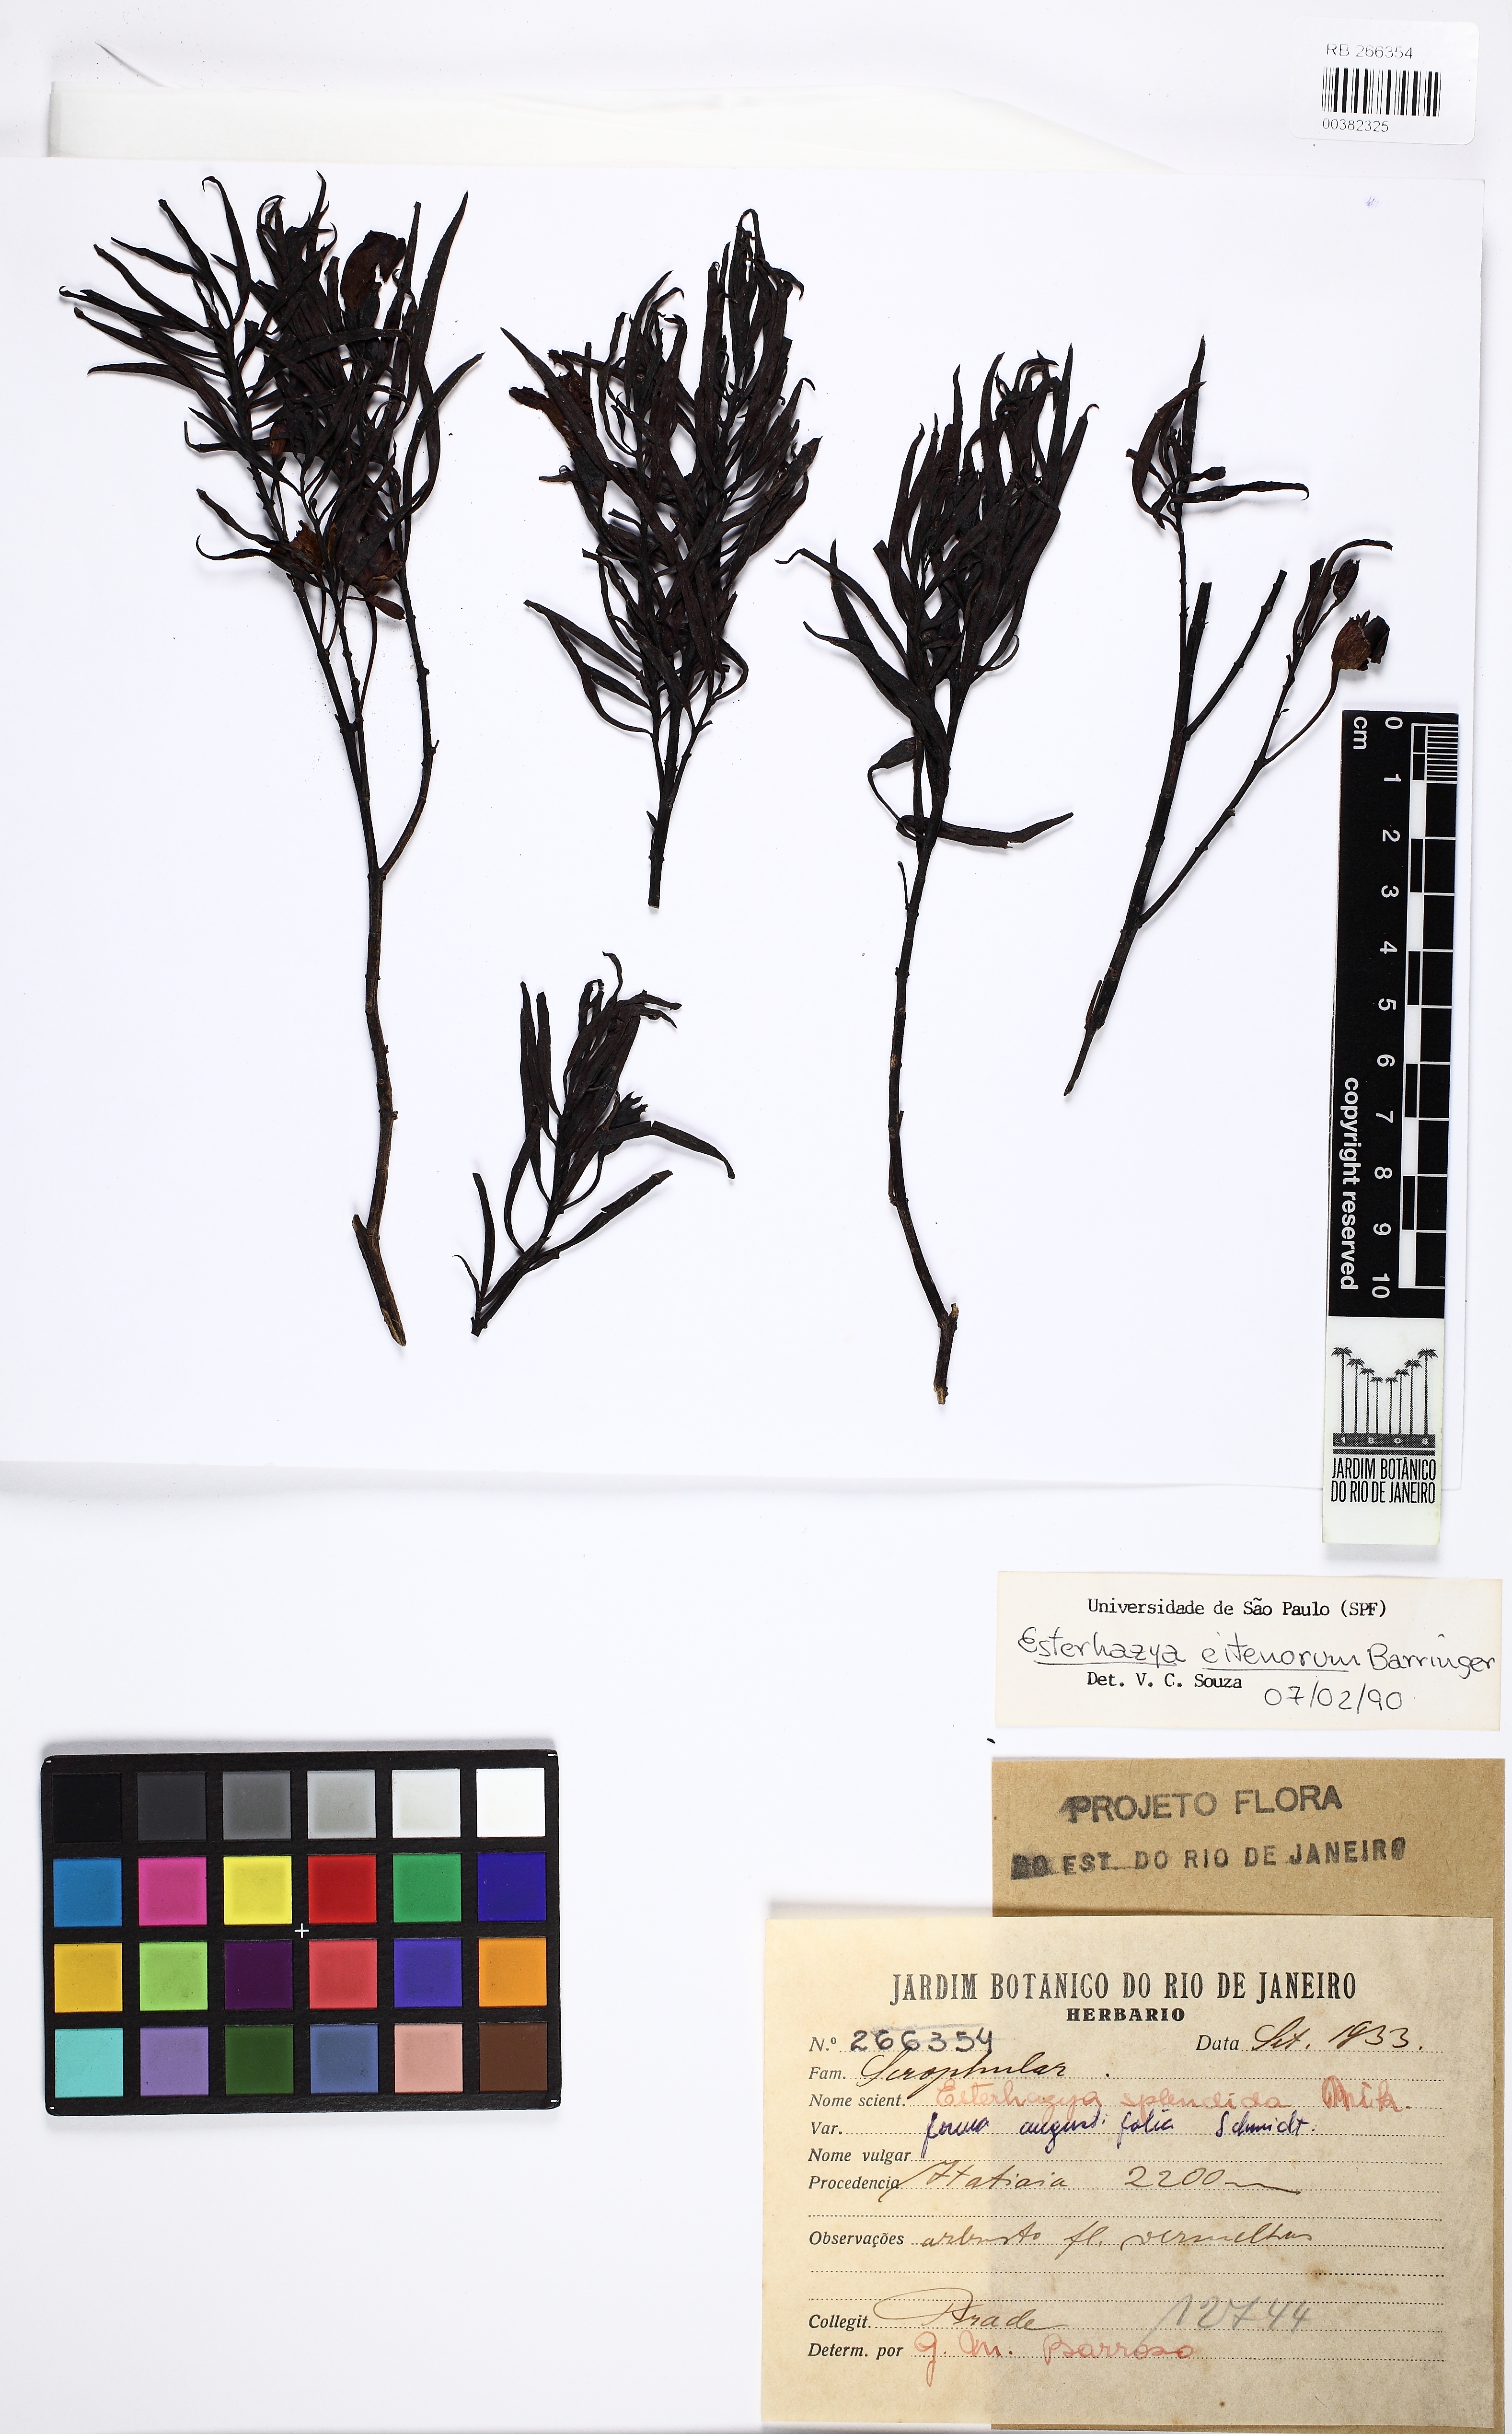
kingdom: Plantae
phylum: Tracheophyta
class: Magnoliopsida
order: Lamiales
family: Scrophulariaceae
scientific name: Scrophulariaceae
